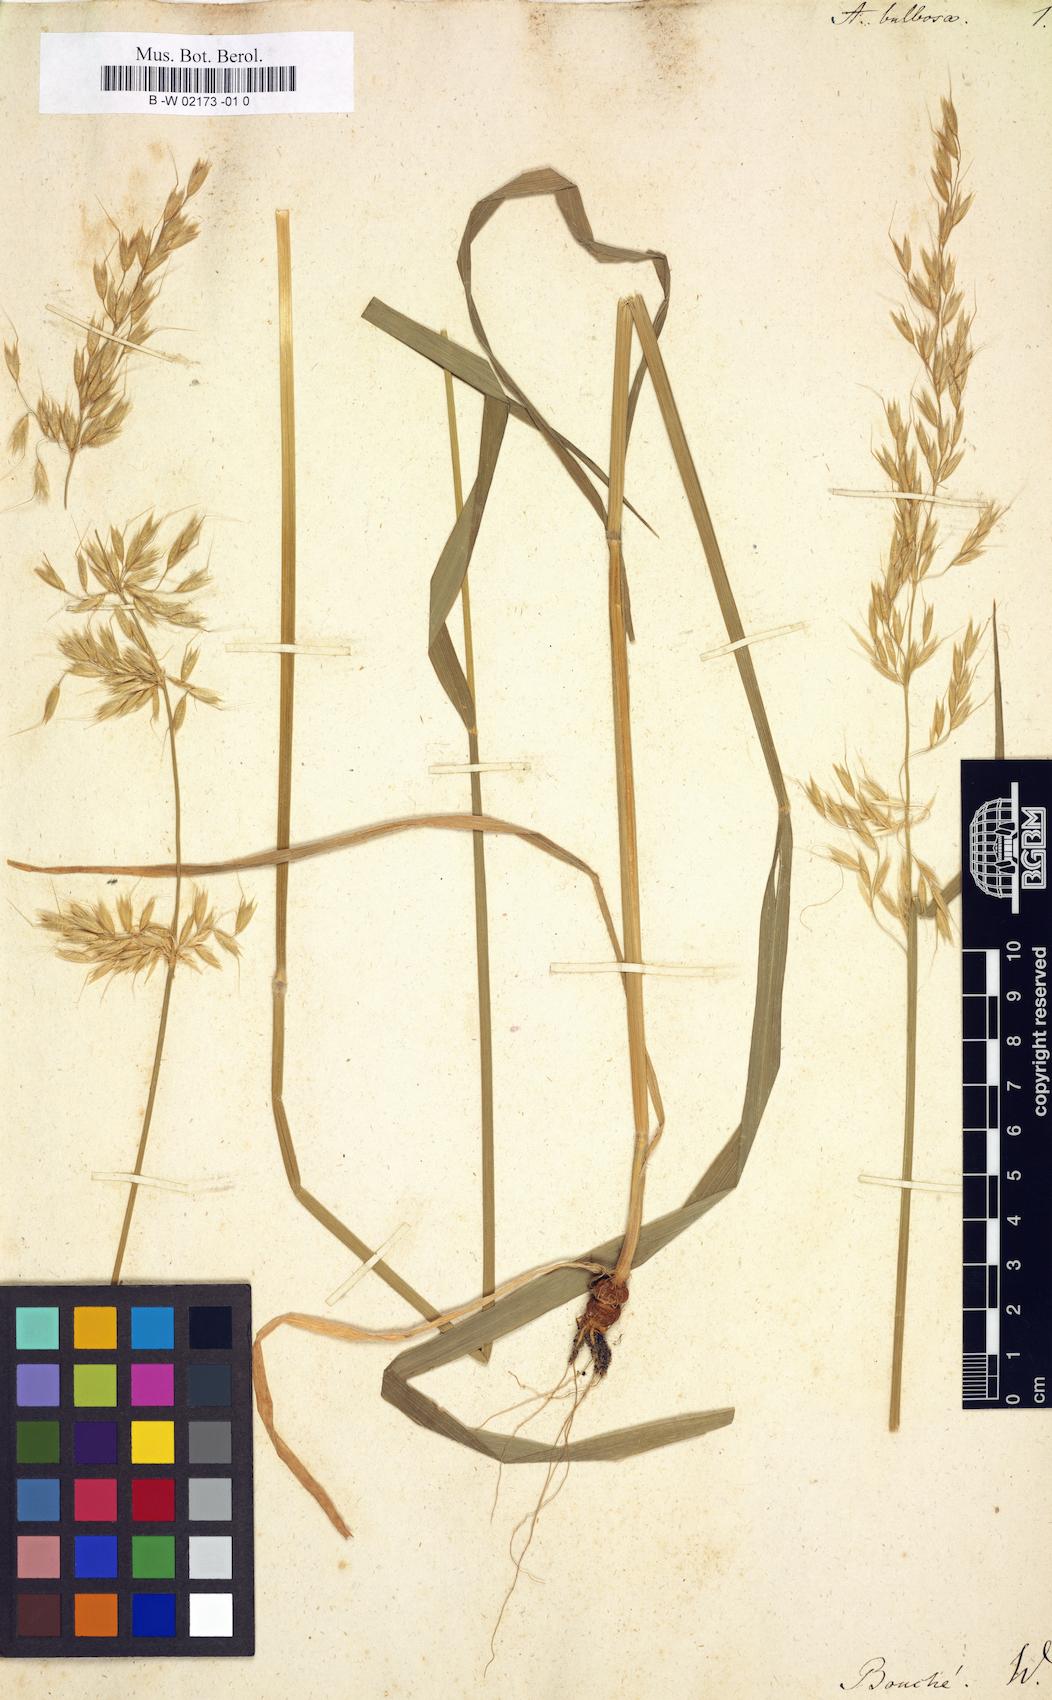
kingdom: Plantae
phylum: Tracheophyta
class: Liliopsida
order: Poales
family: Poaceae
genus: Arrhenatherum
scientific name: Arrhenatherum elatius
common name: Tall oatgrass
